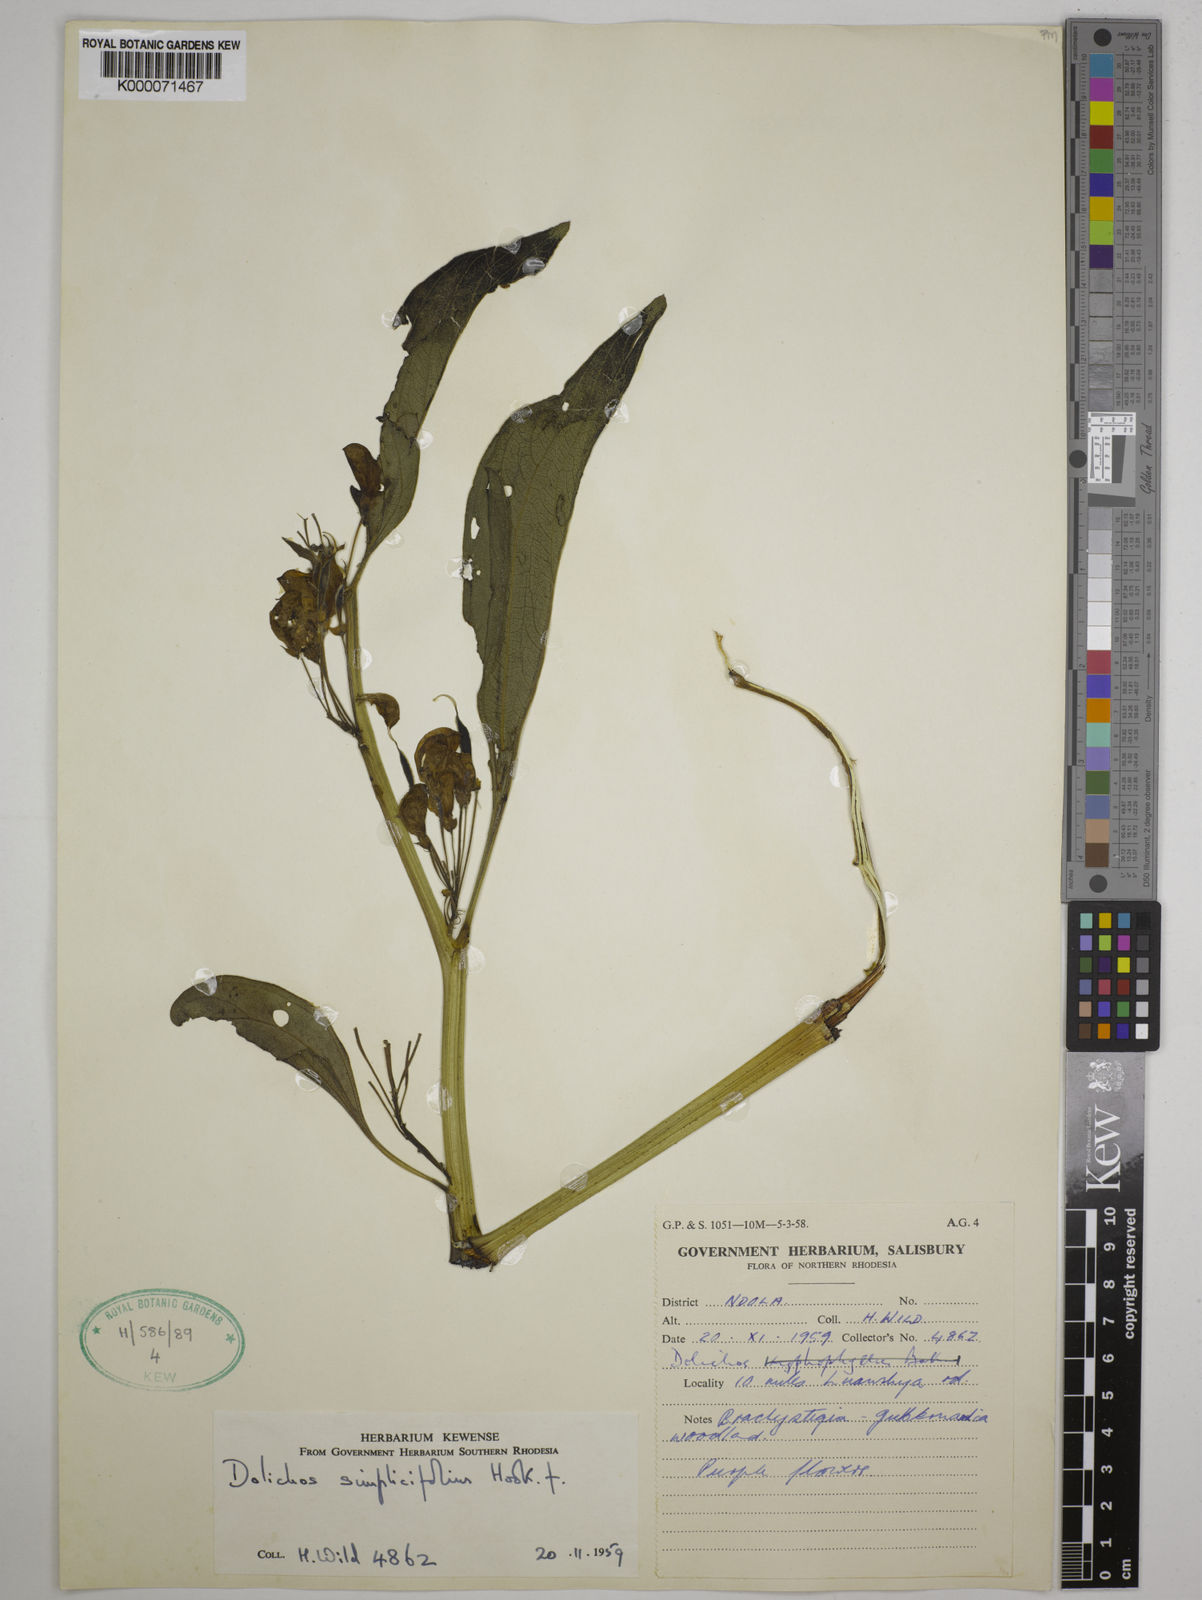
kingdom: Plantae
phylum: Tracheophyta
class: Magnoliopsida
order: Fabales
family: Fabaceae
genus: Dolichos
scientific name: Dolichos simplicifolius
